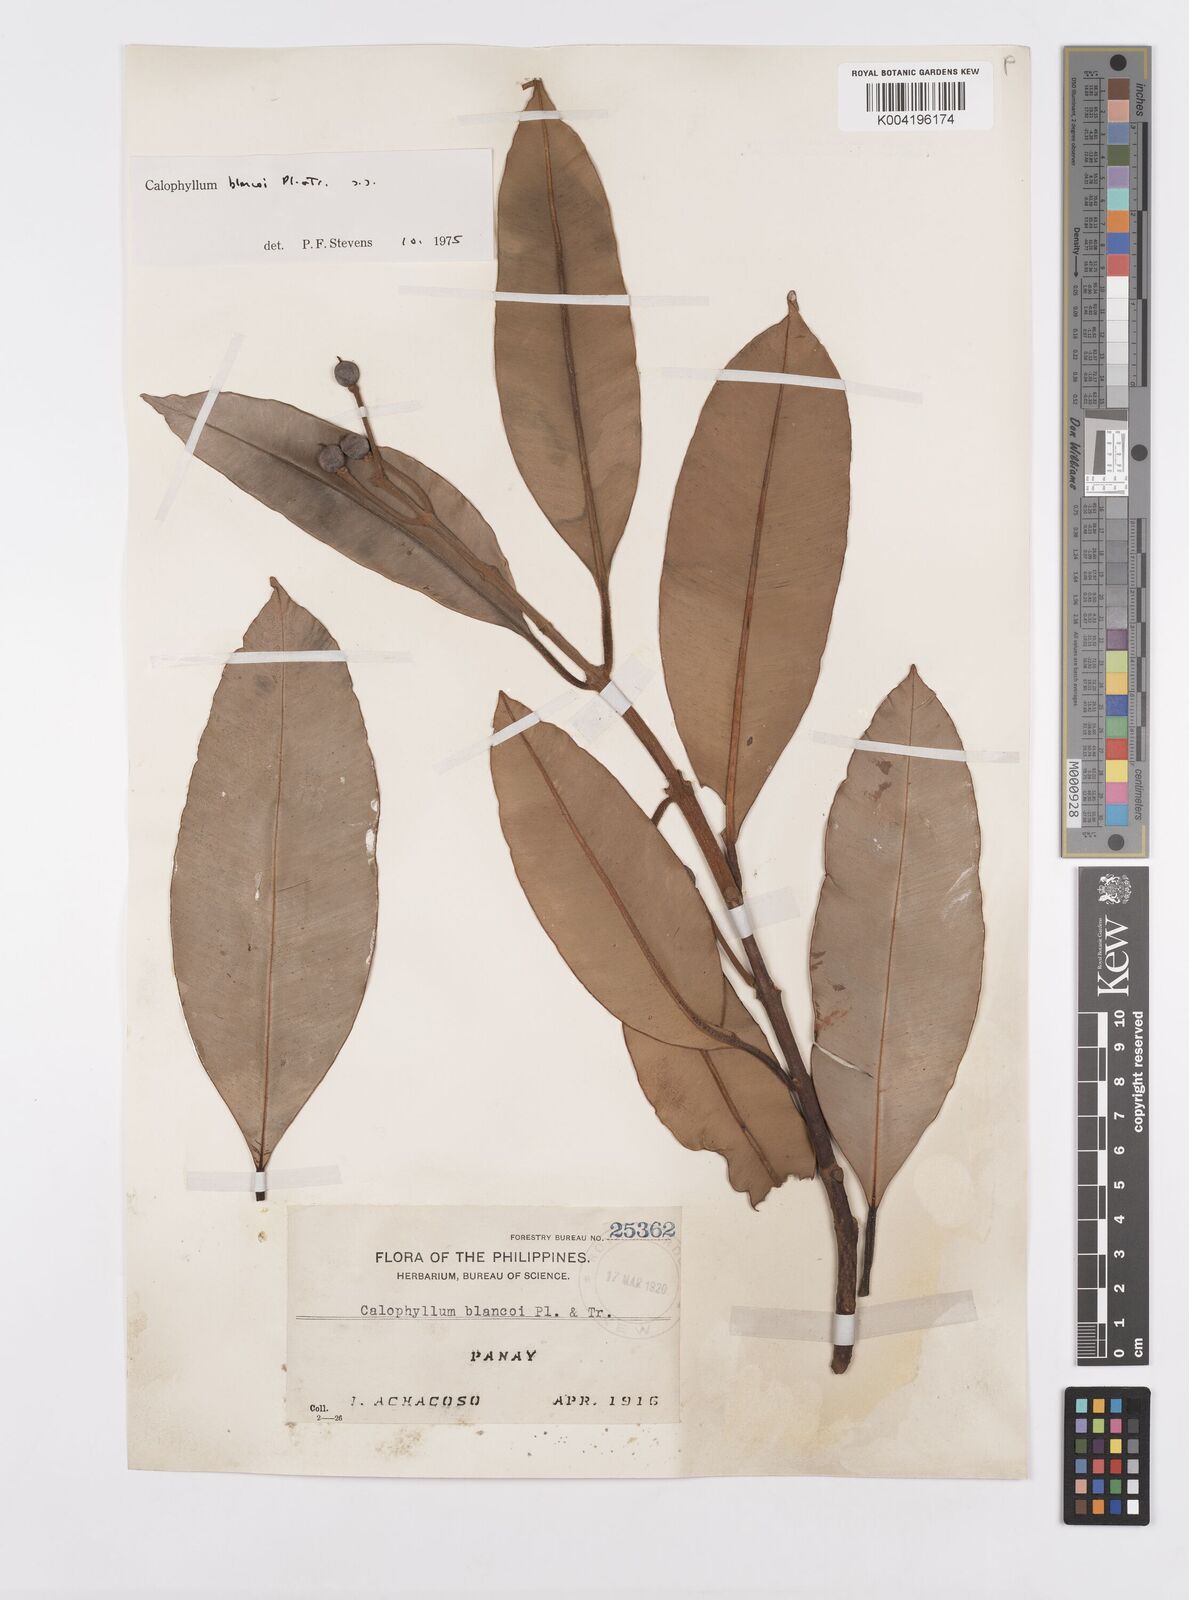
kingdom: Plantae
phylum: Tracheophyta
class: Magnoliopsida
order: Malpighiales
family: Calophyllaceae
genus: Calophyllum
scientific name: Calophyllum blancoi
